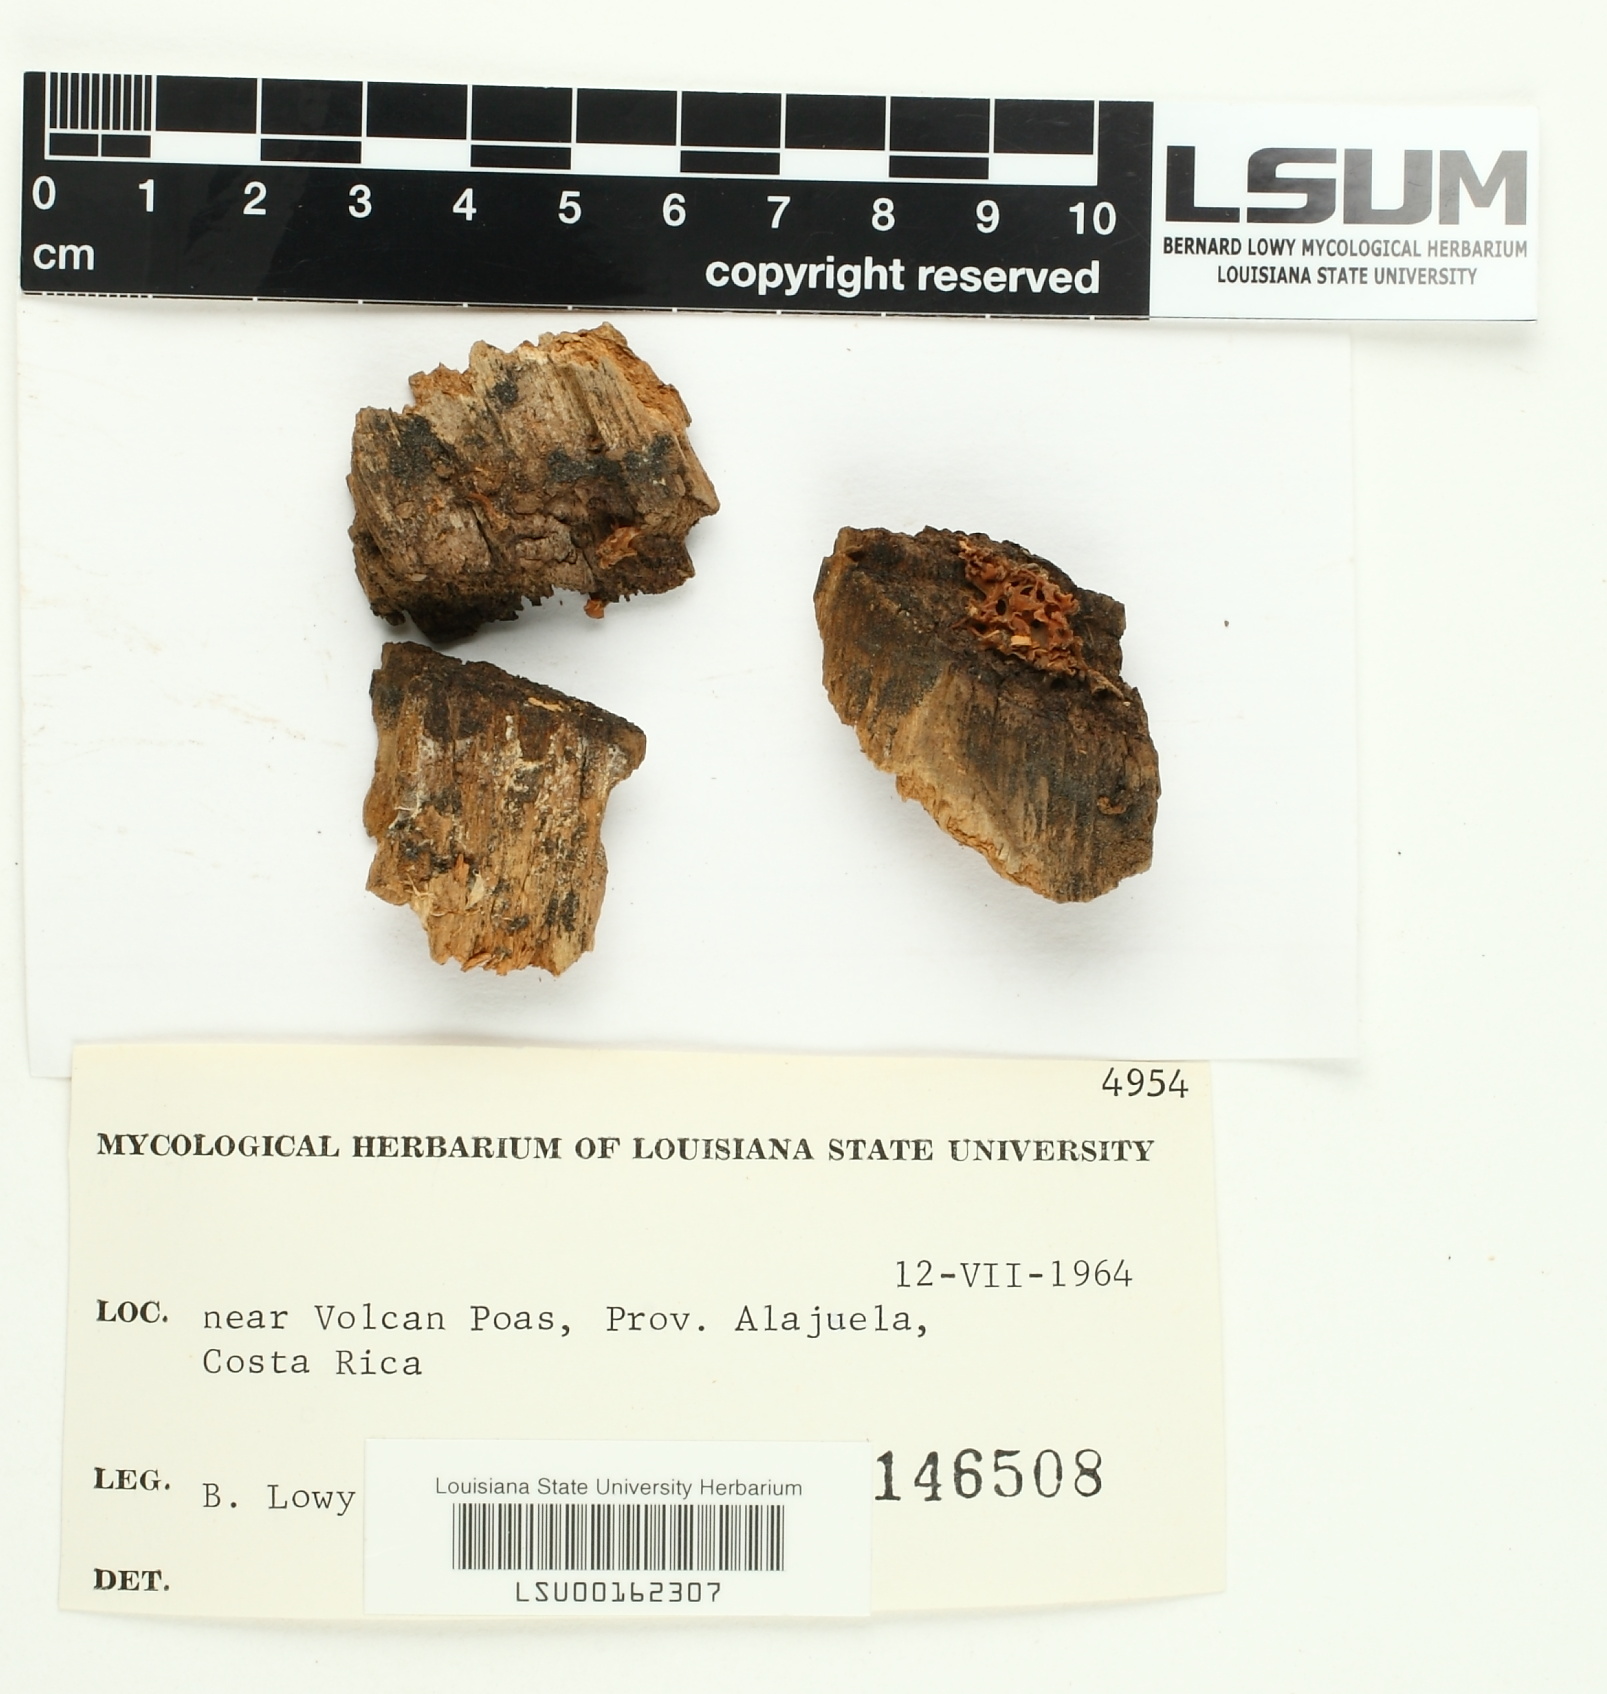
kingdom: Fungi
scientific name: Fungi
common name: Fungi
